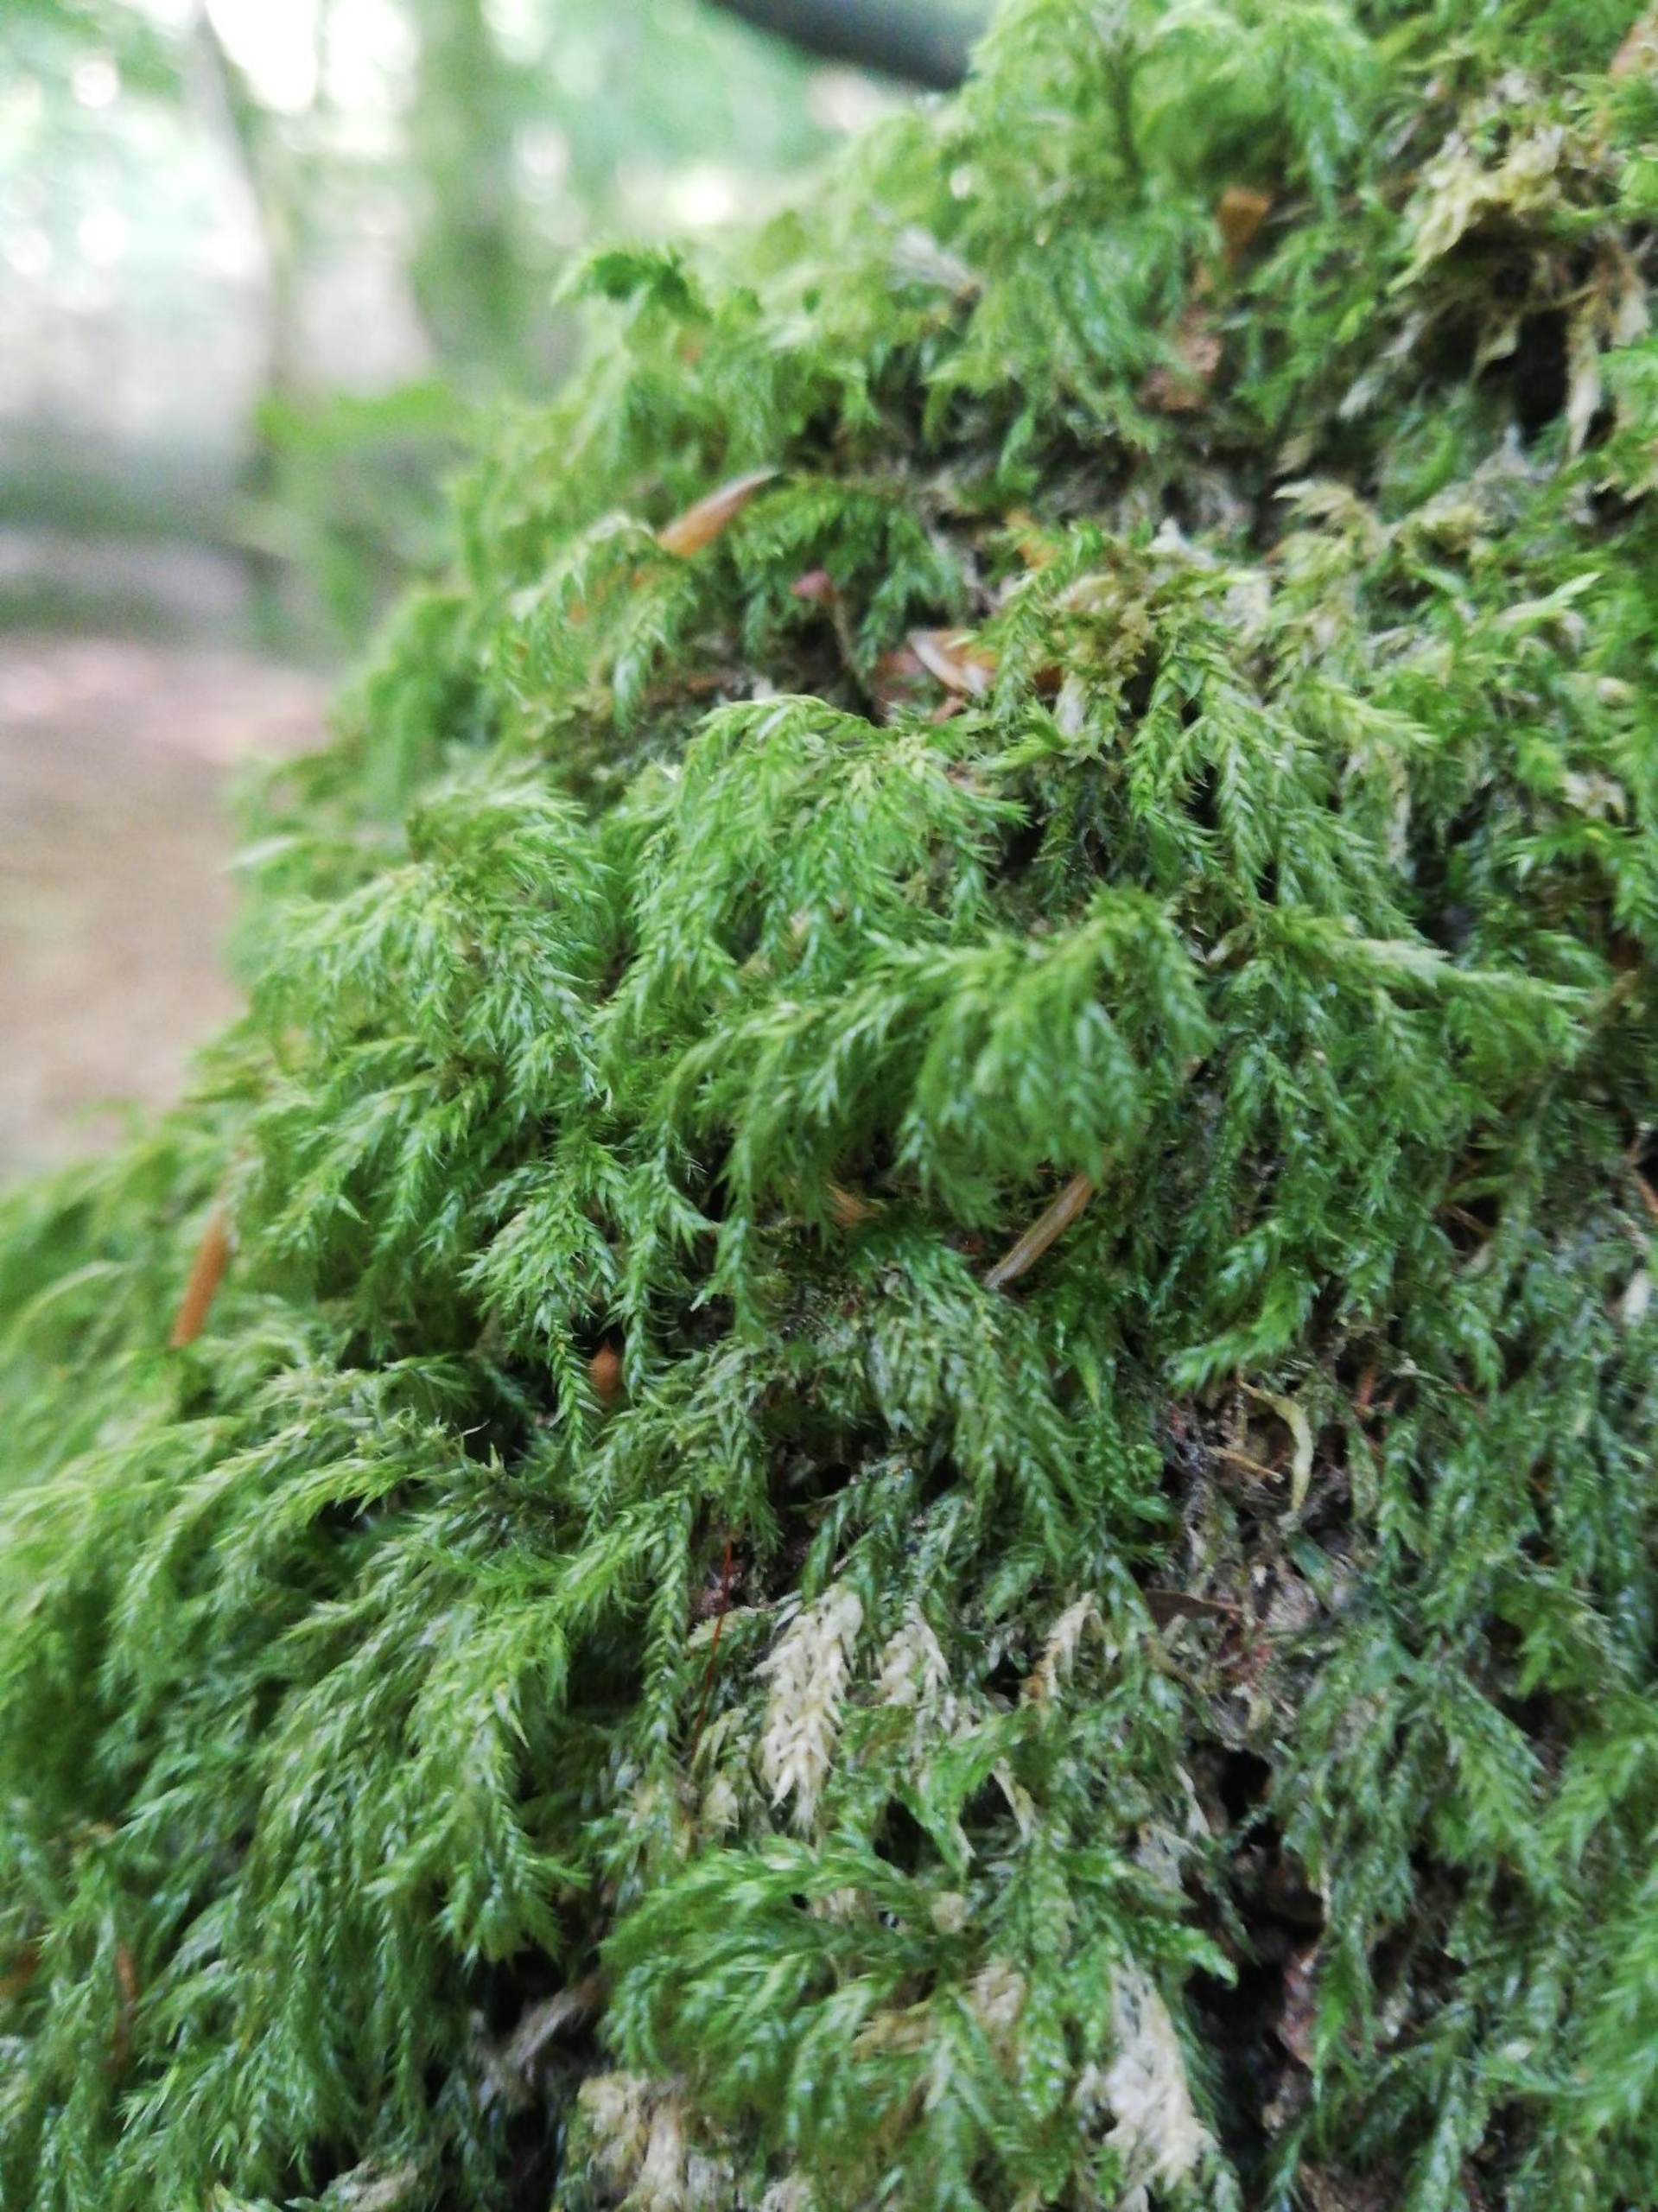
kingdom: Plantae
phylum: Bryophyta
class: Bryopsida
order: Hypnales
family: Lembophyllaceae
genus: Pseudisothecium
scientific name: Pseudisothecium myosuroides
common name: Slank stammemos
